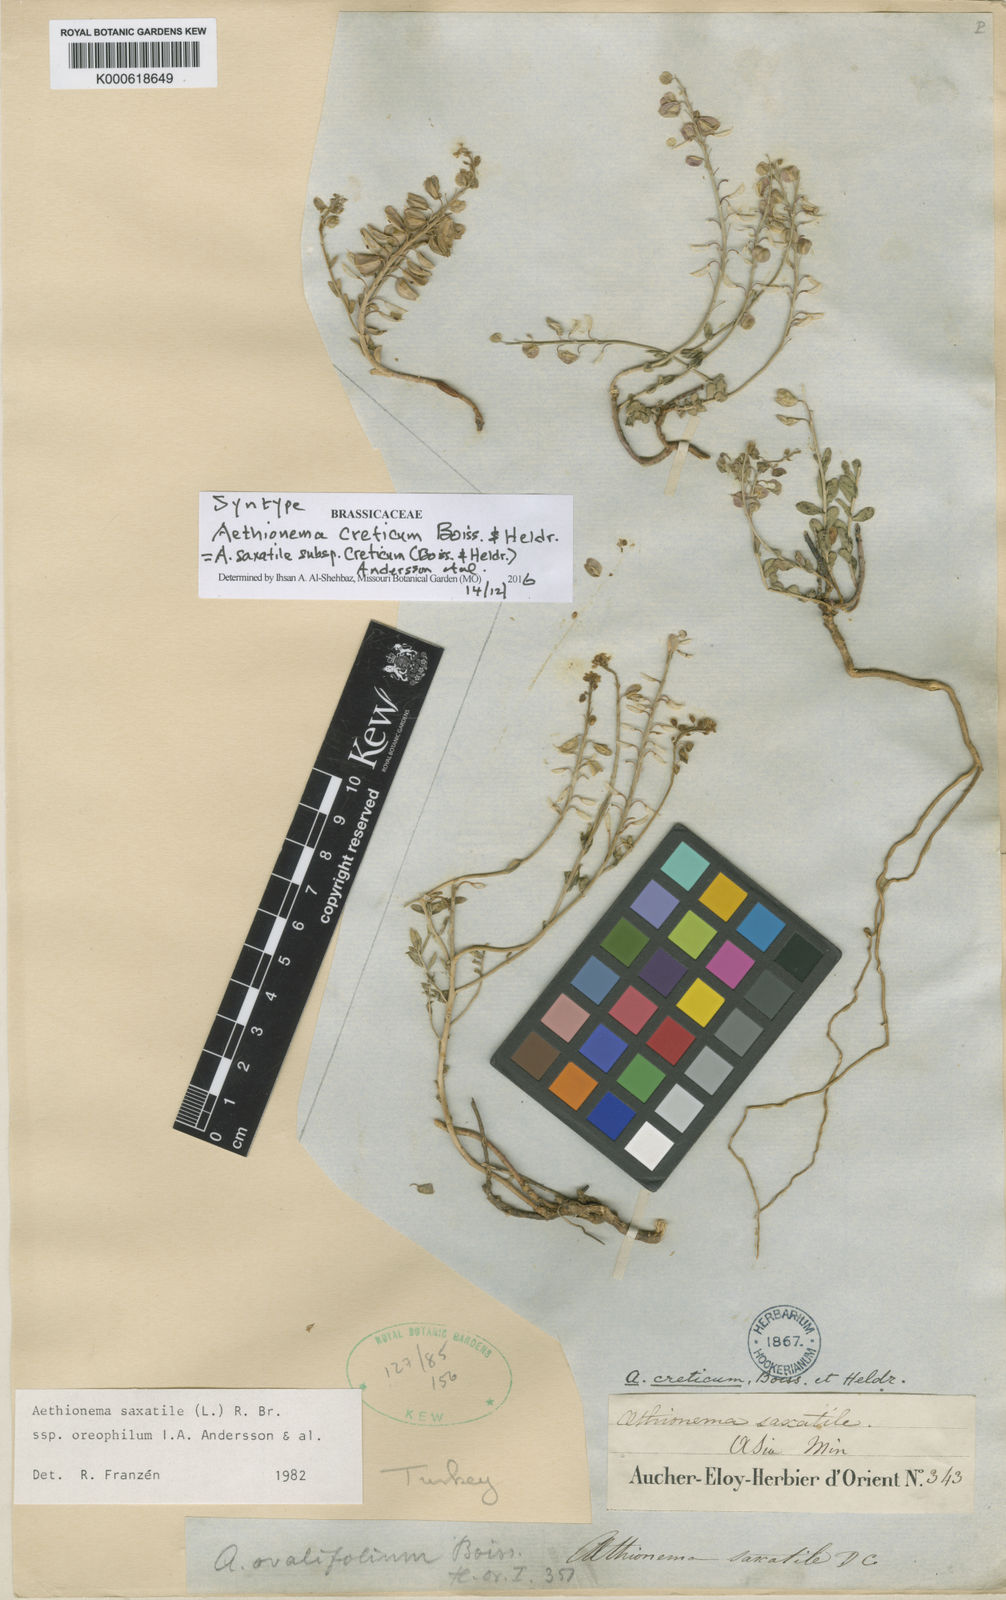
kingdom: Plantae
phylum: Tracheophyta
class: Magnoliopsida
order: Brassicales
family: Brassicaceae
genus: Aethionema
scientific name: Aethionema saxatile
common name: Burnt candytuft
